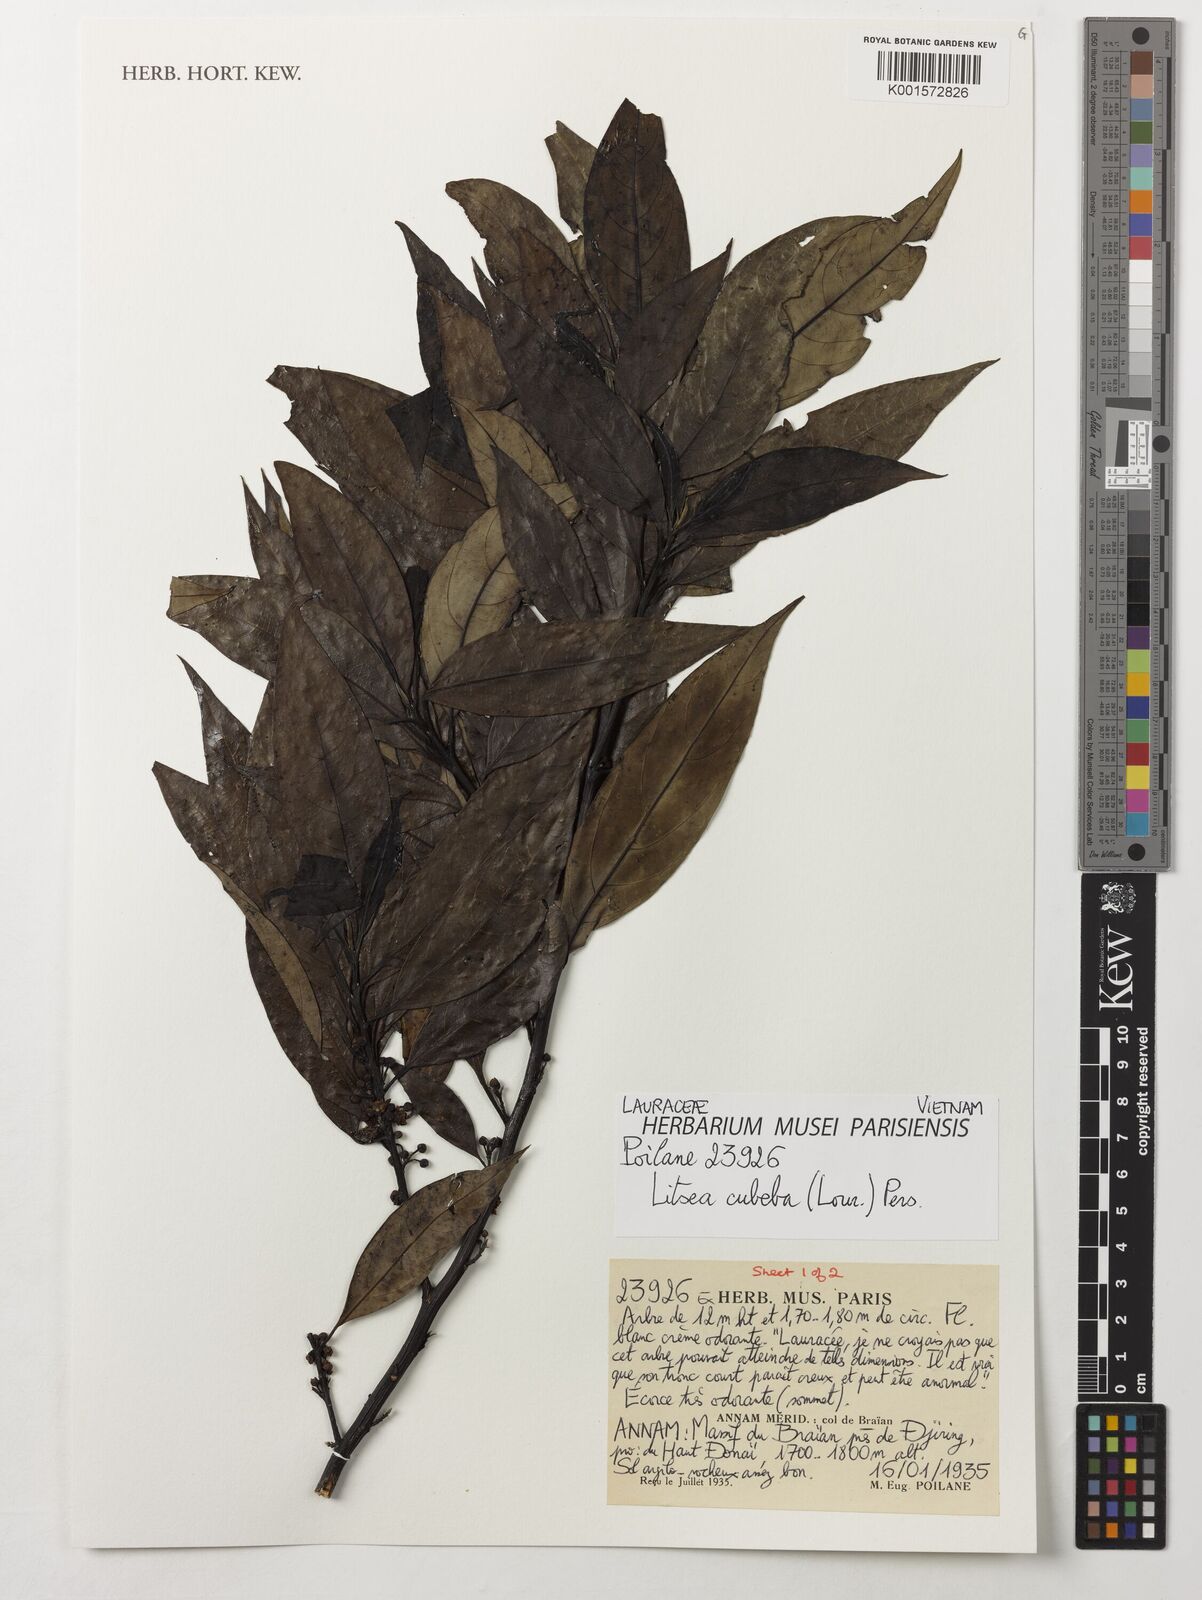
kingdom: Plantae
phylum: Tracheophyta
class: Magnoliopsida
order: Laurales
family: Lauraceae
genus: Litsea
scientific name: Litsea cubeba
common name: Mountain-pepper
